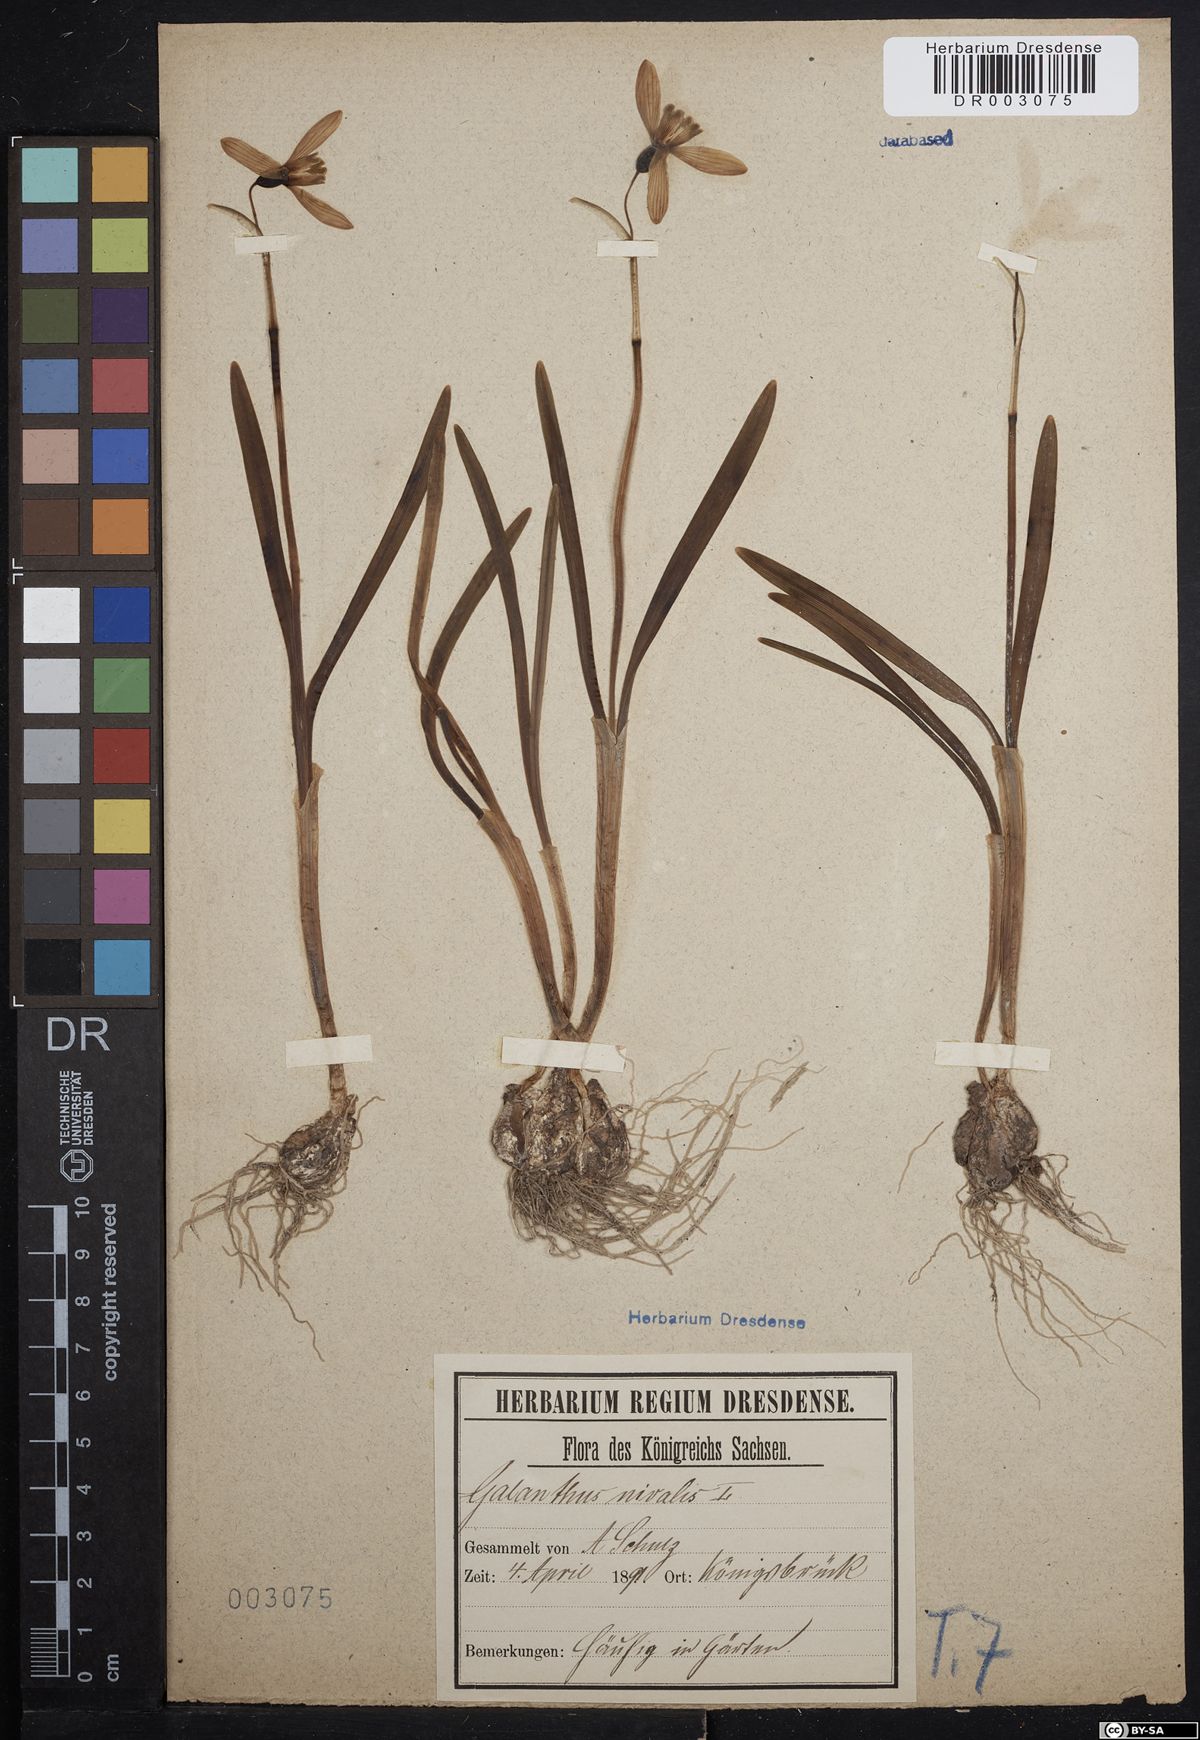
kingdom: Plantae
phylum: Tracheophyta
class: Liliopsida
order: Asparagales
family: Amaryllidaceae
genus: Galanthus
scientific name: Galanthus nivalis
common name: Snowdrop
